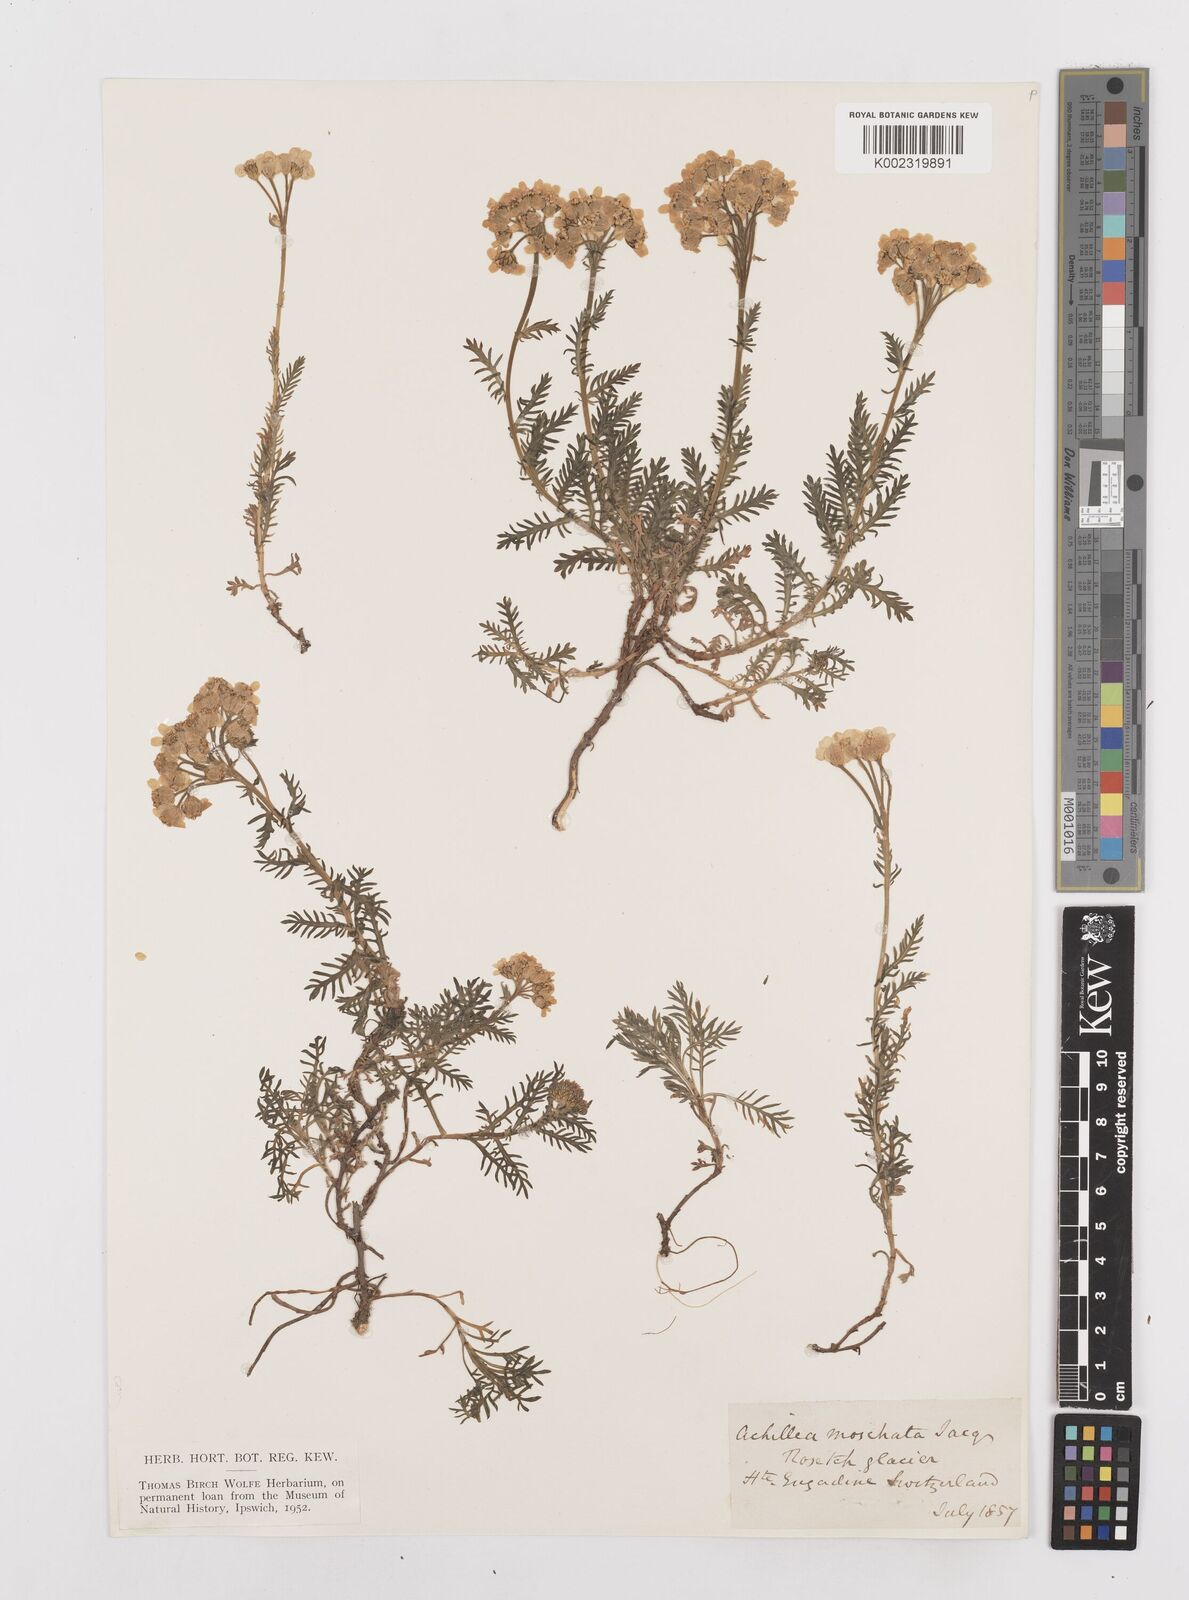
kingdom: Plantae
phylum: Tracheophyta
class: Magnoliopsida
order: Asterales
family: Asteraceae
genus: Achillea
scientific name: Achillea erba-rotta
